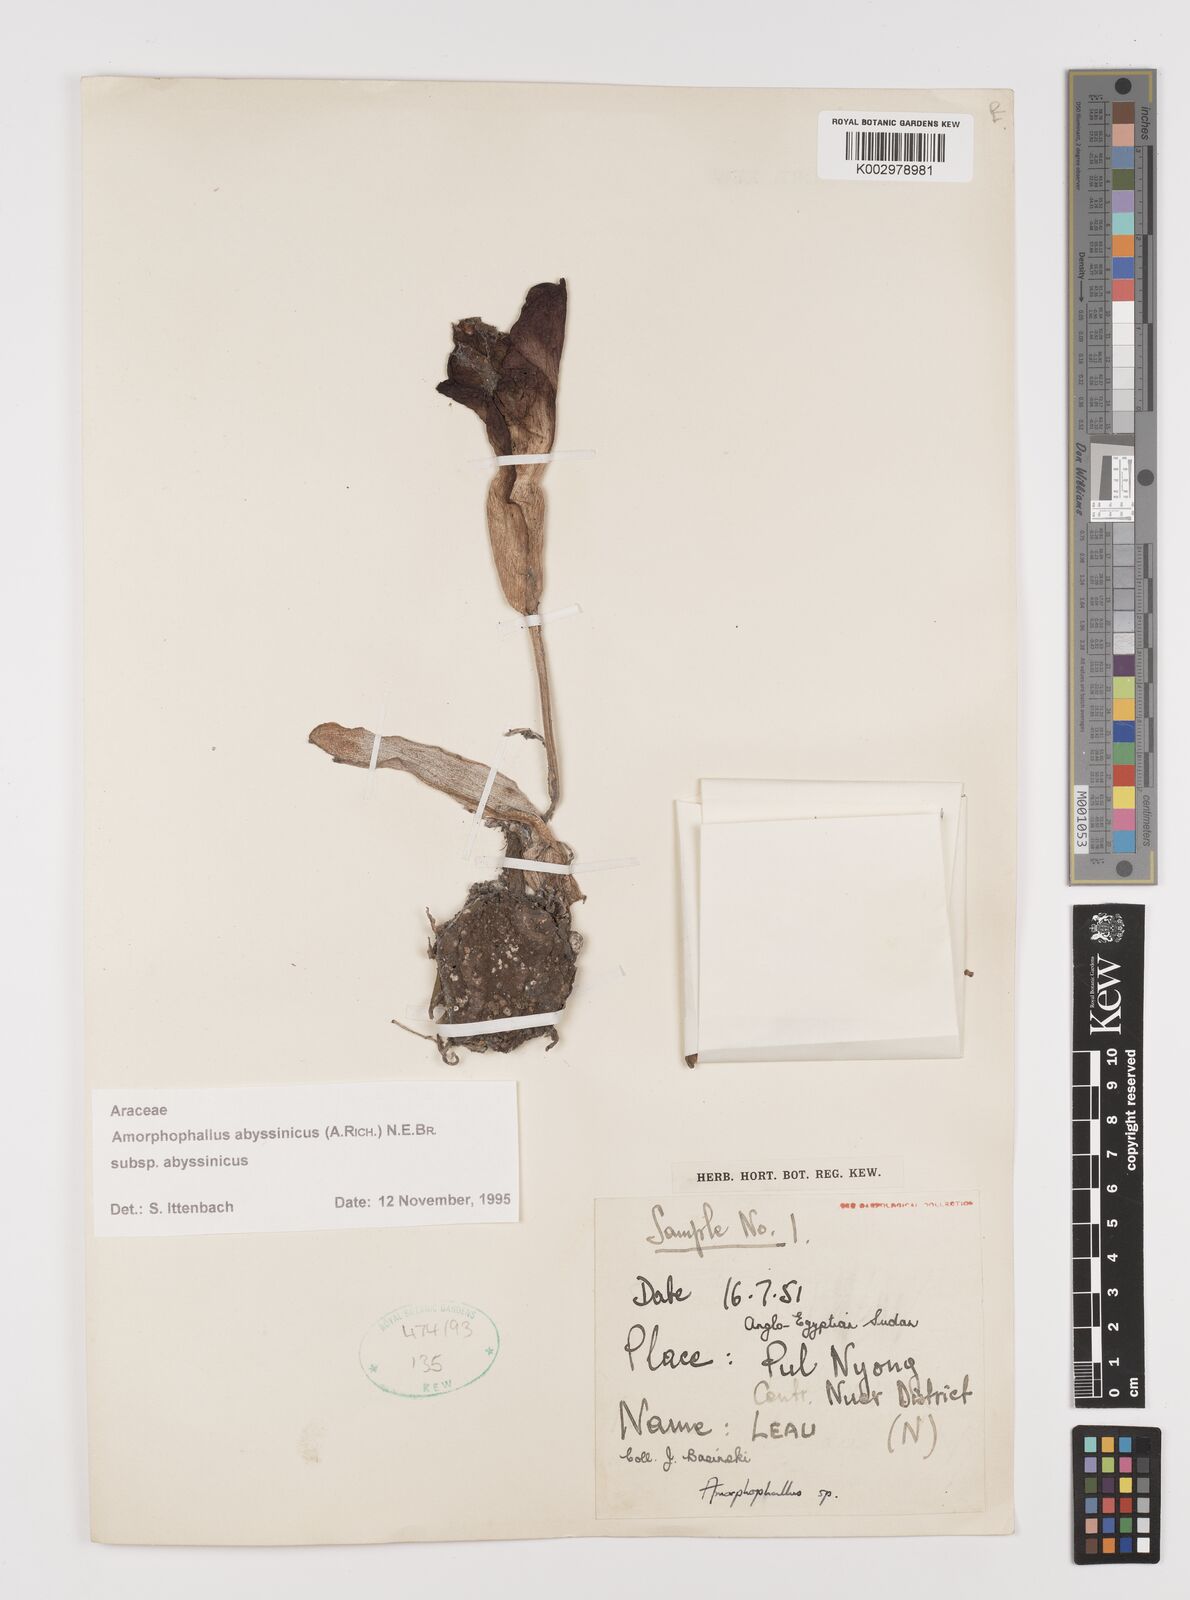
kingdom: Plantae
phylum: Tracheophyta
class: Liliopsida
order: Alismatales
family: Araceae
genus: Amorphophallus
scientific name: Amorphophallus abyssinicus
